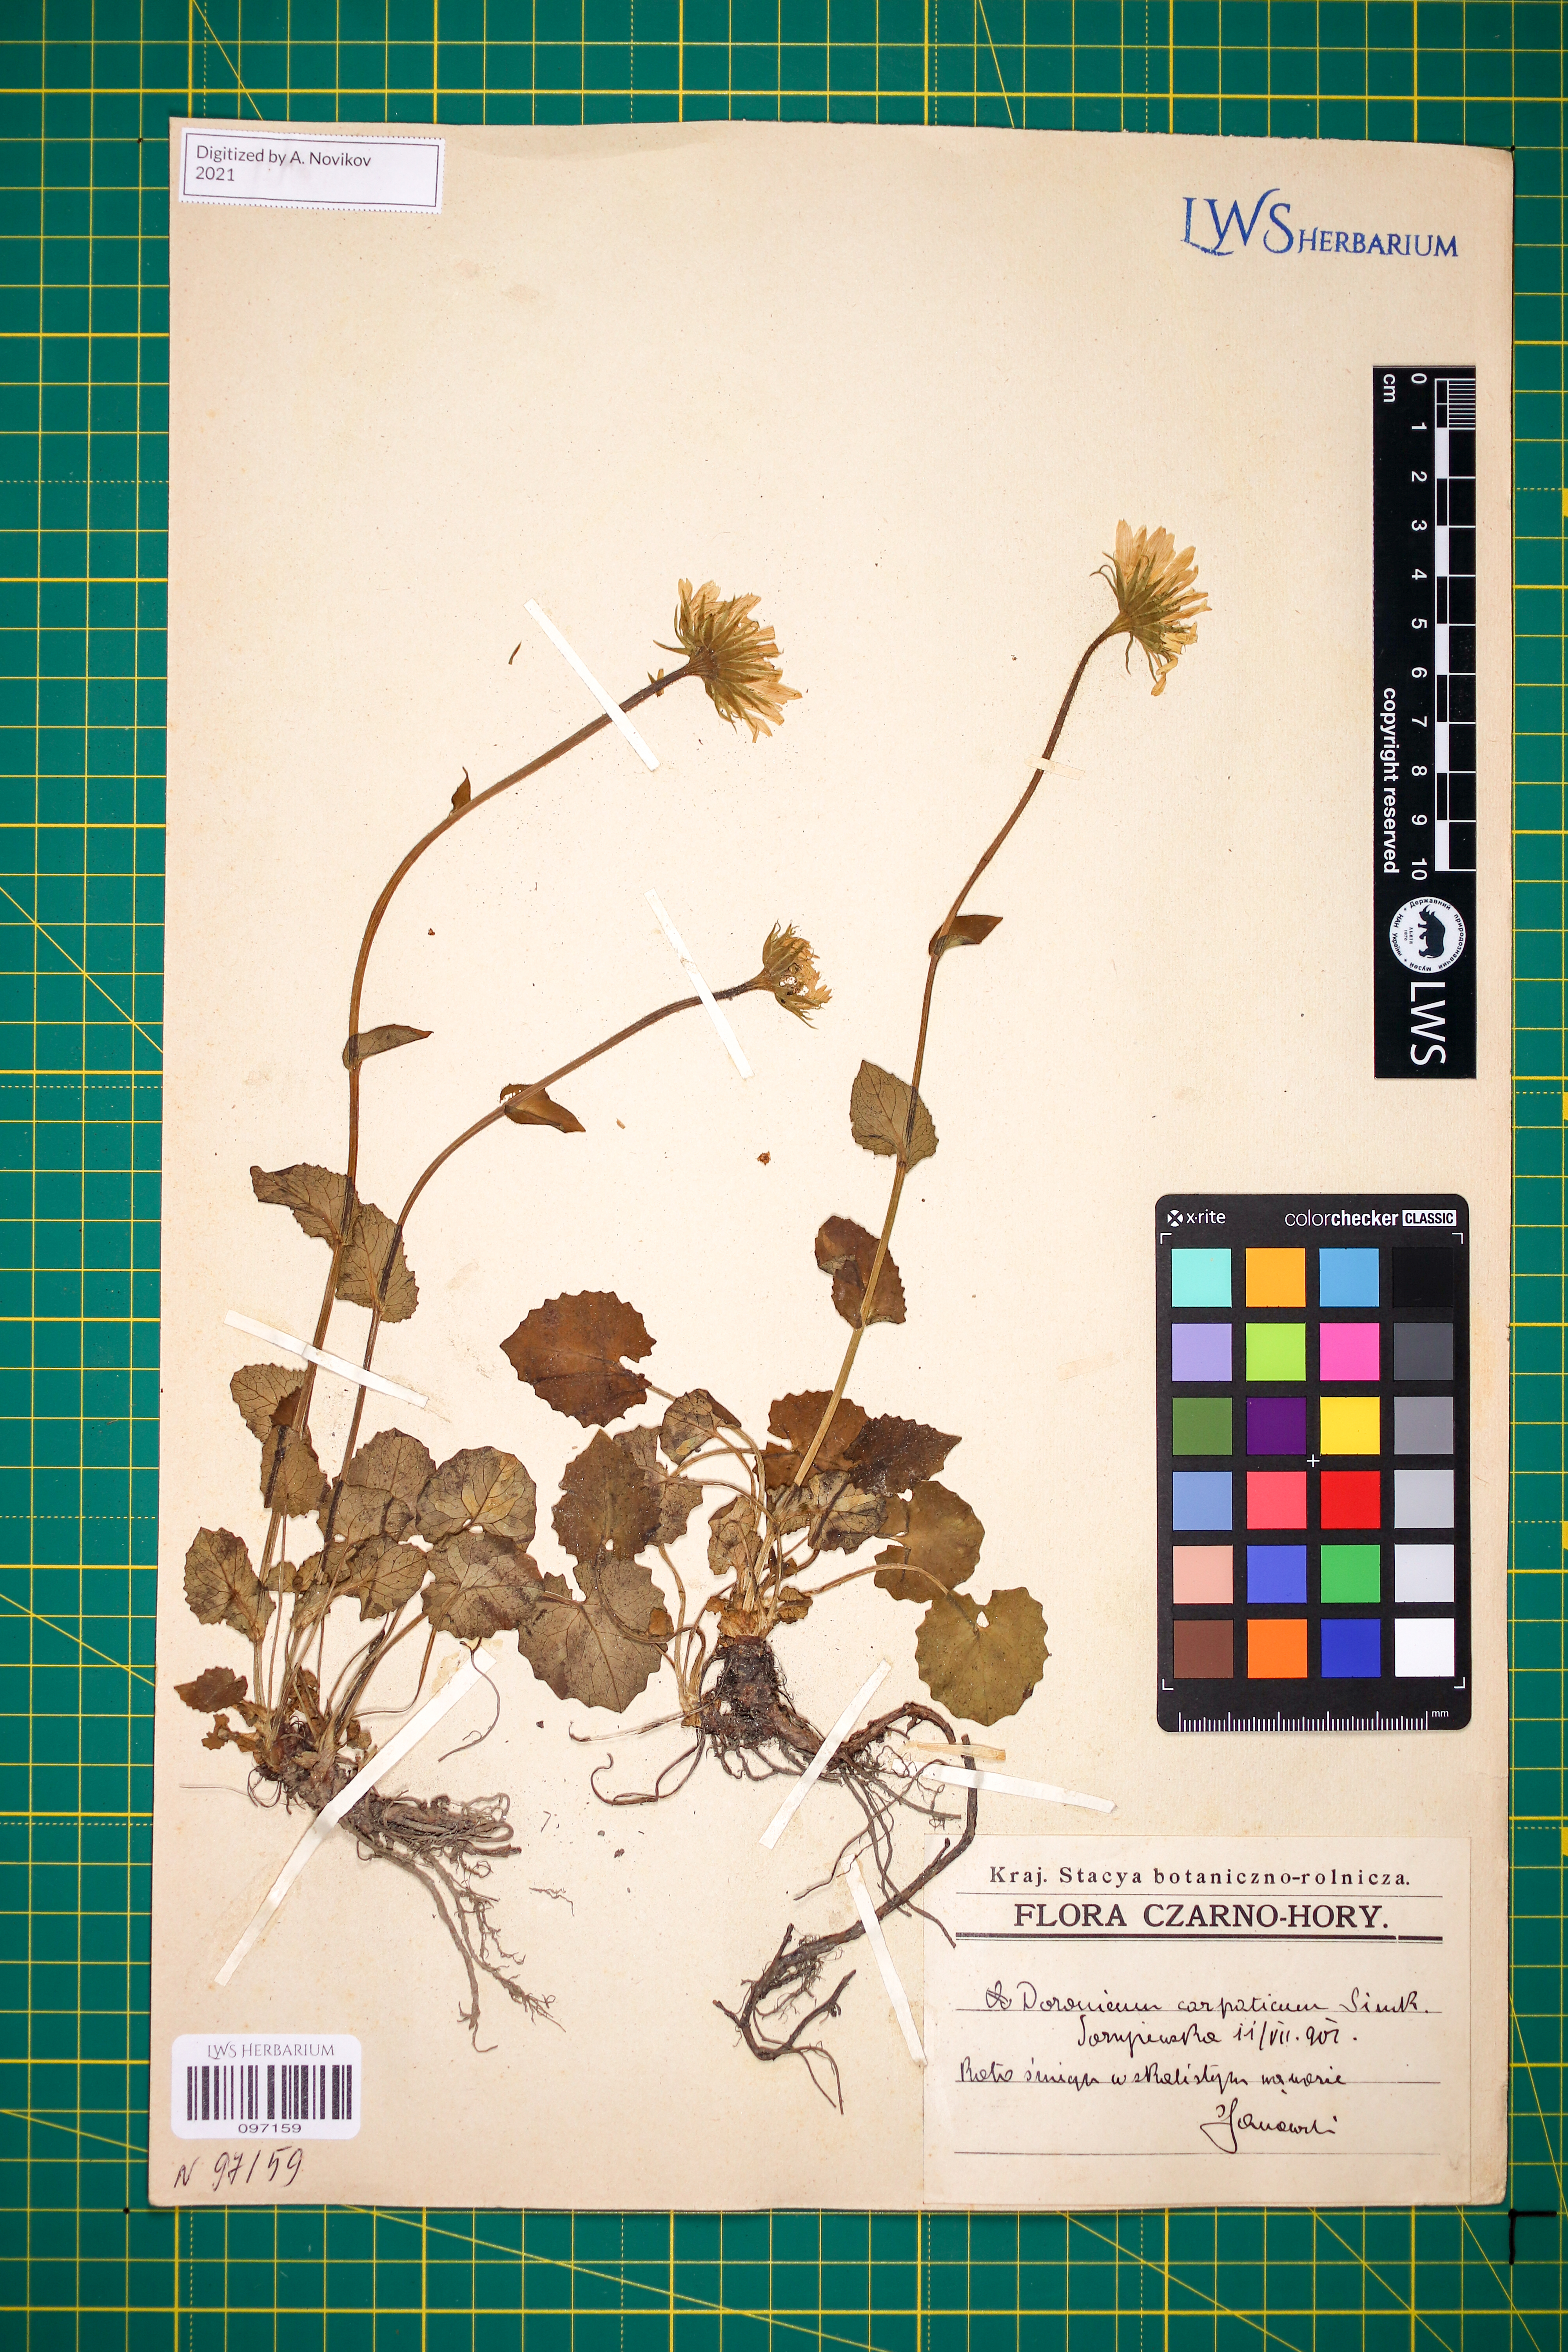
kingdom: Plantae
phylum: Tracheophyta
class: Magnoliopsida
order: Asterales
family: Asteraceae
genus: Doronicum
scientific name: Doronicum carpaticum
